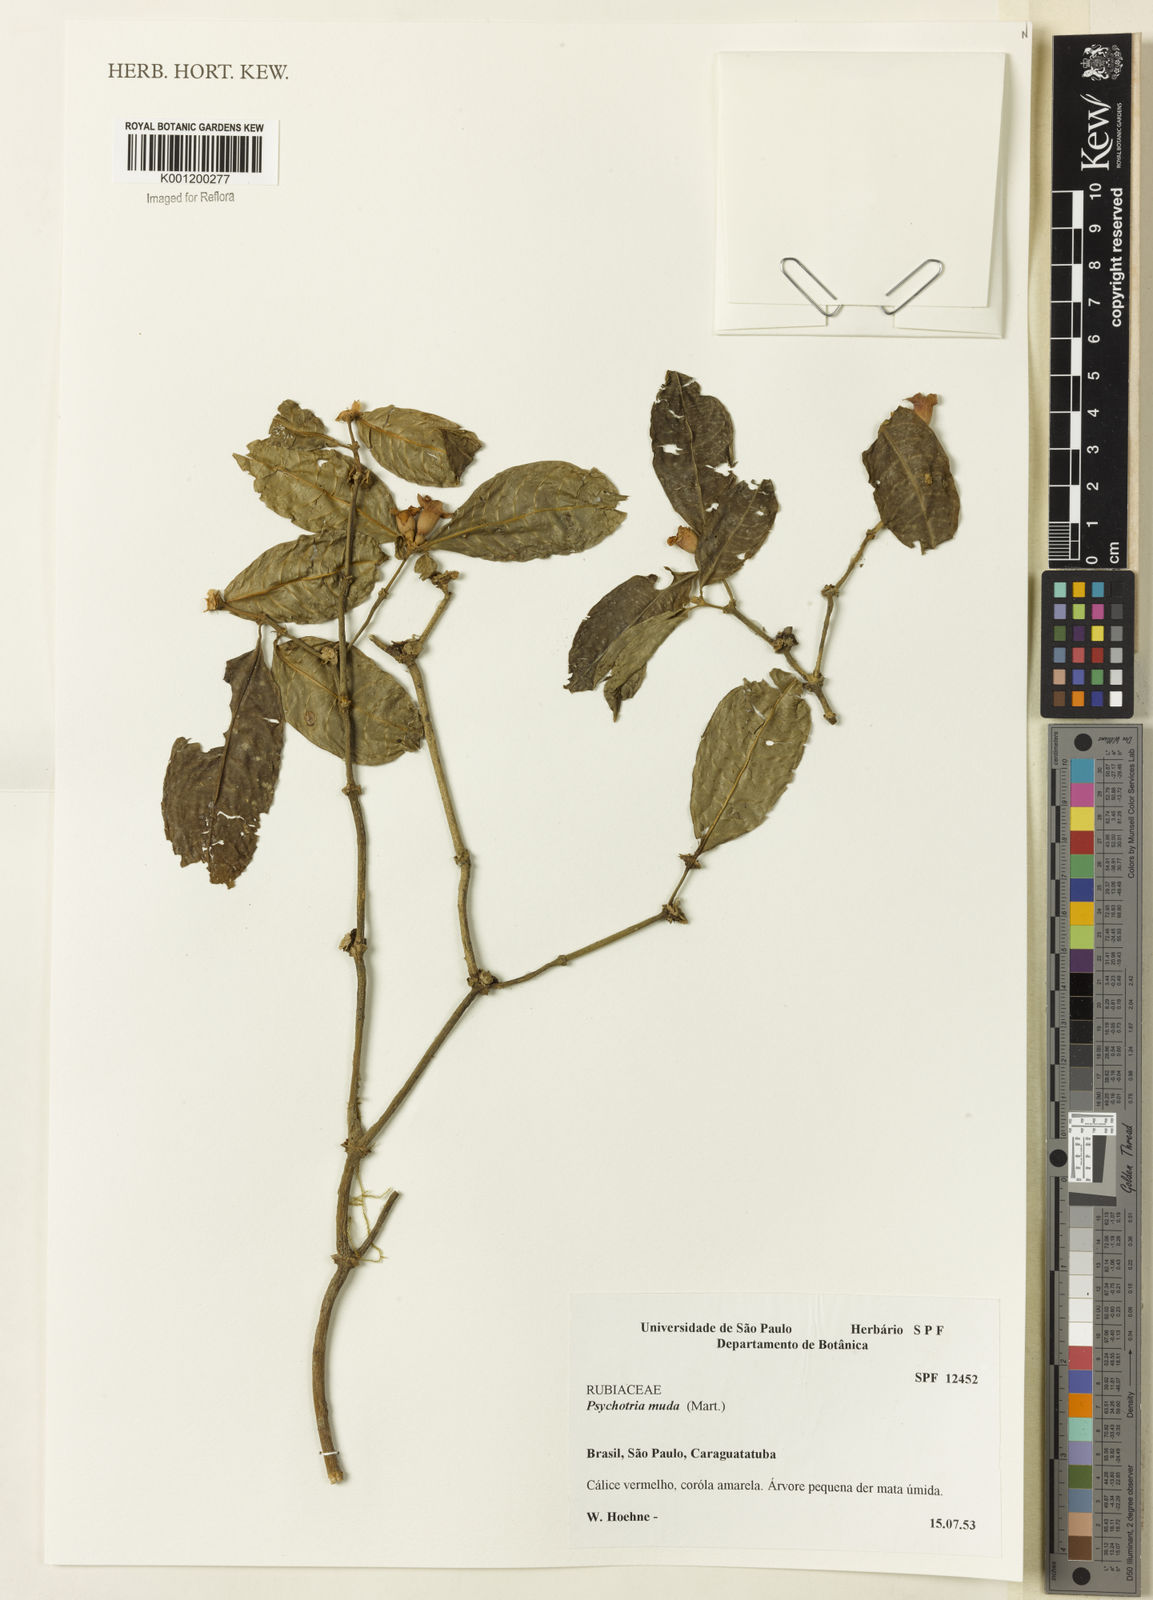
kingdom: Plantae
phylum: Tracheophyta
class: Magnoliopsida
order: Gentianales
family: Rubiaceae
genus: Psychotria
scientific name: Psychotria nuda
